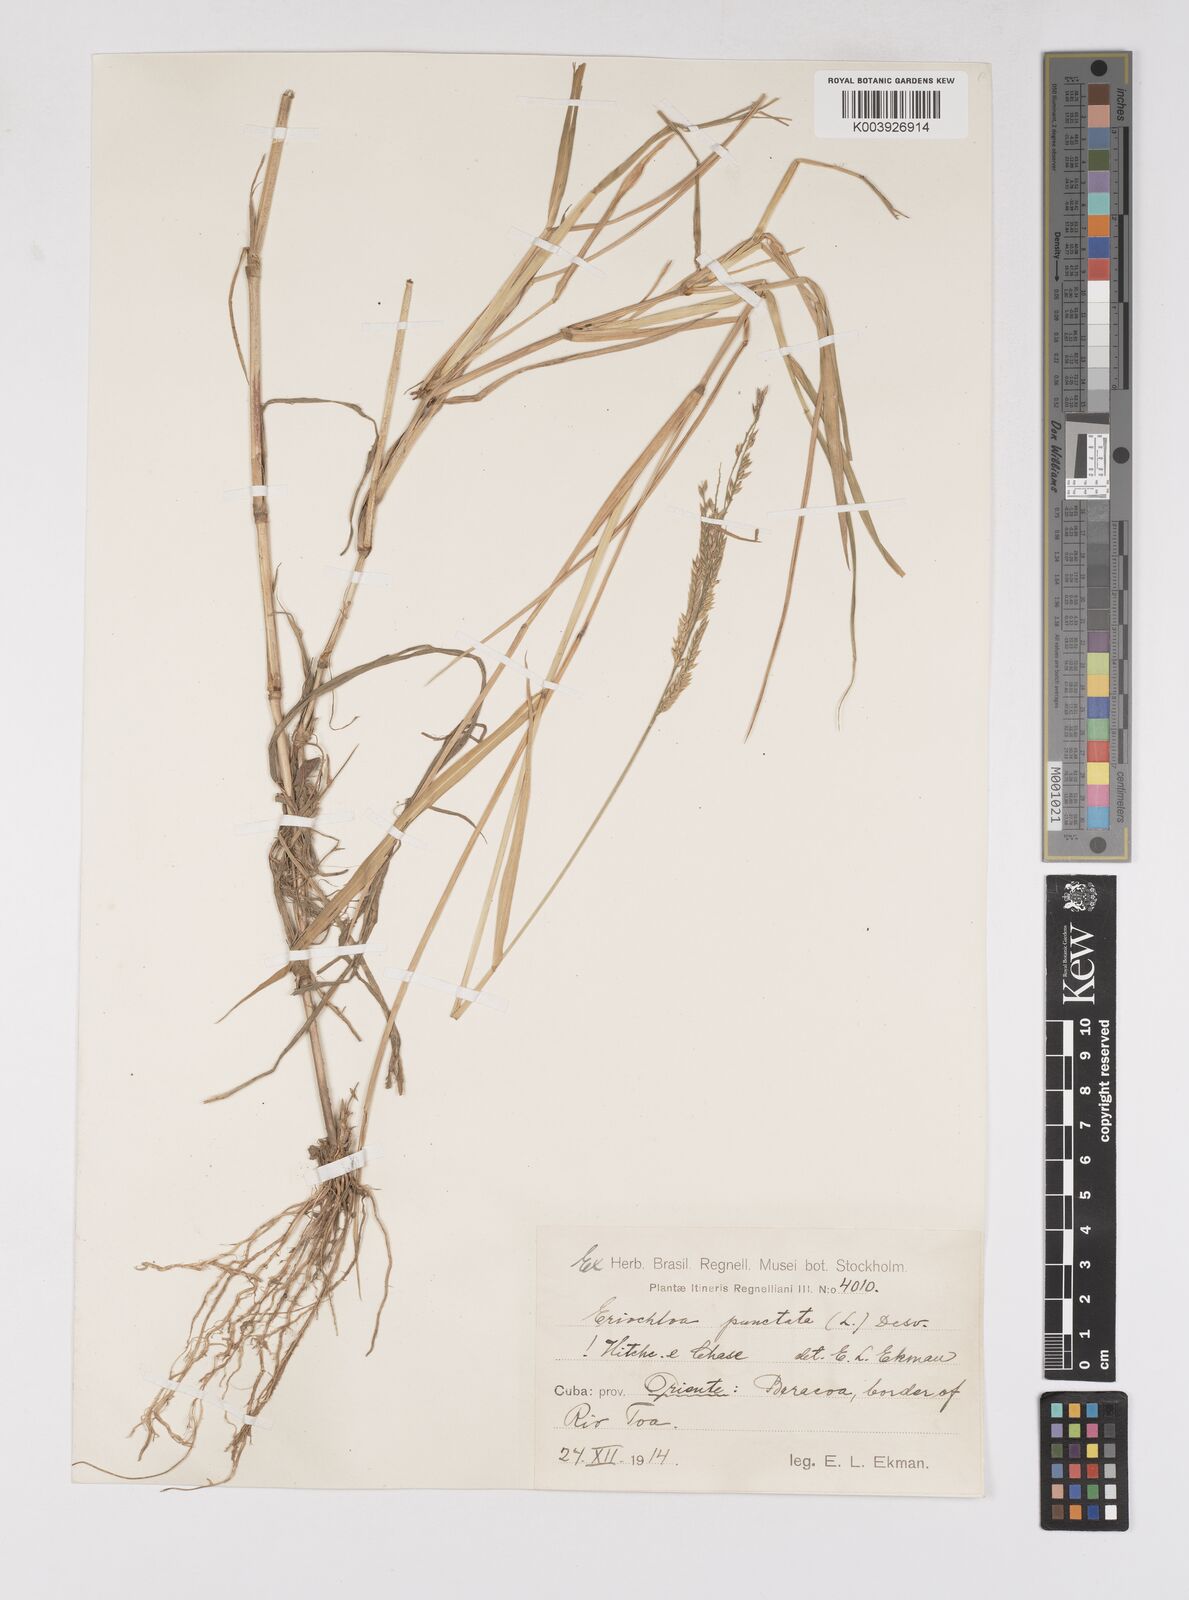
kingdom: Plantae
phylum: Tracheophyta
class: Liliopsida
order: Poales
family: Poaceae
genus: Eriochloa
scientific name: Eriochloa punctata
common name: Louisiana cupgrass
